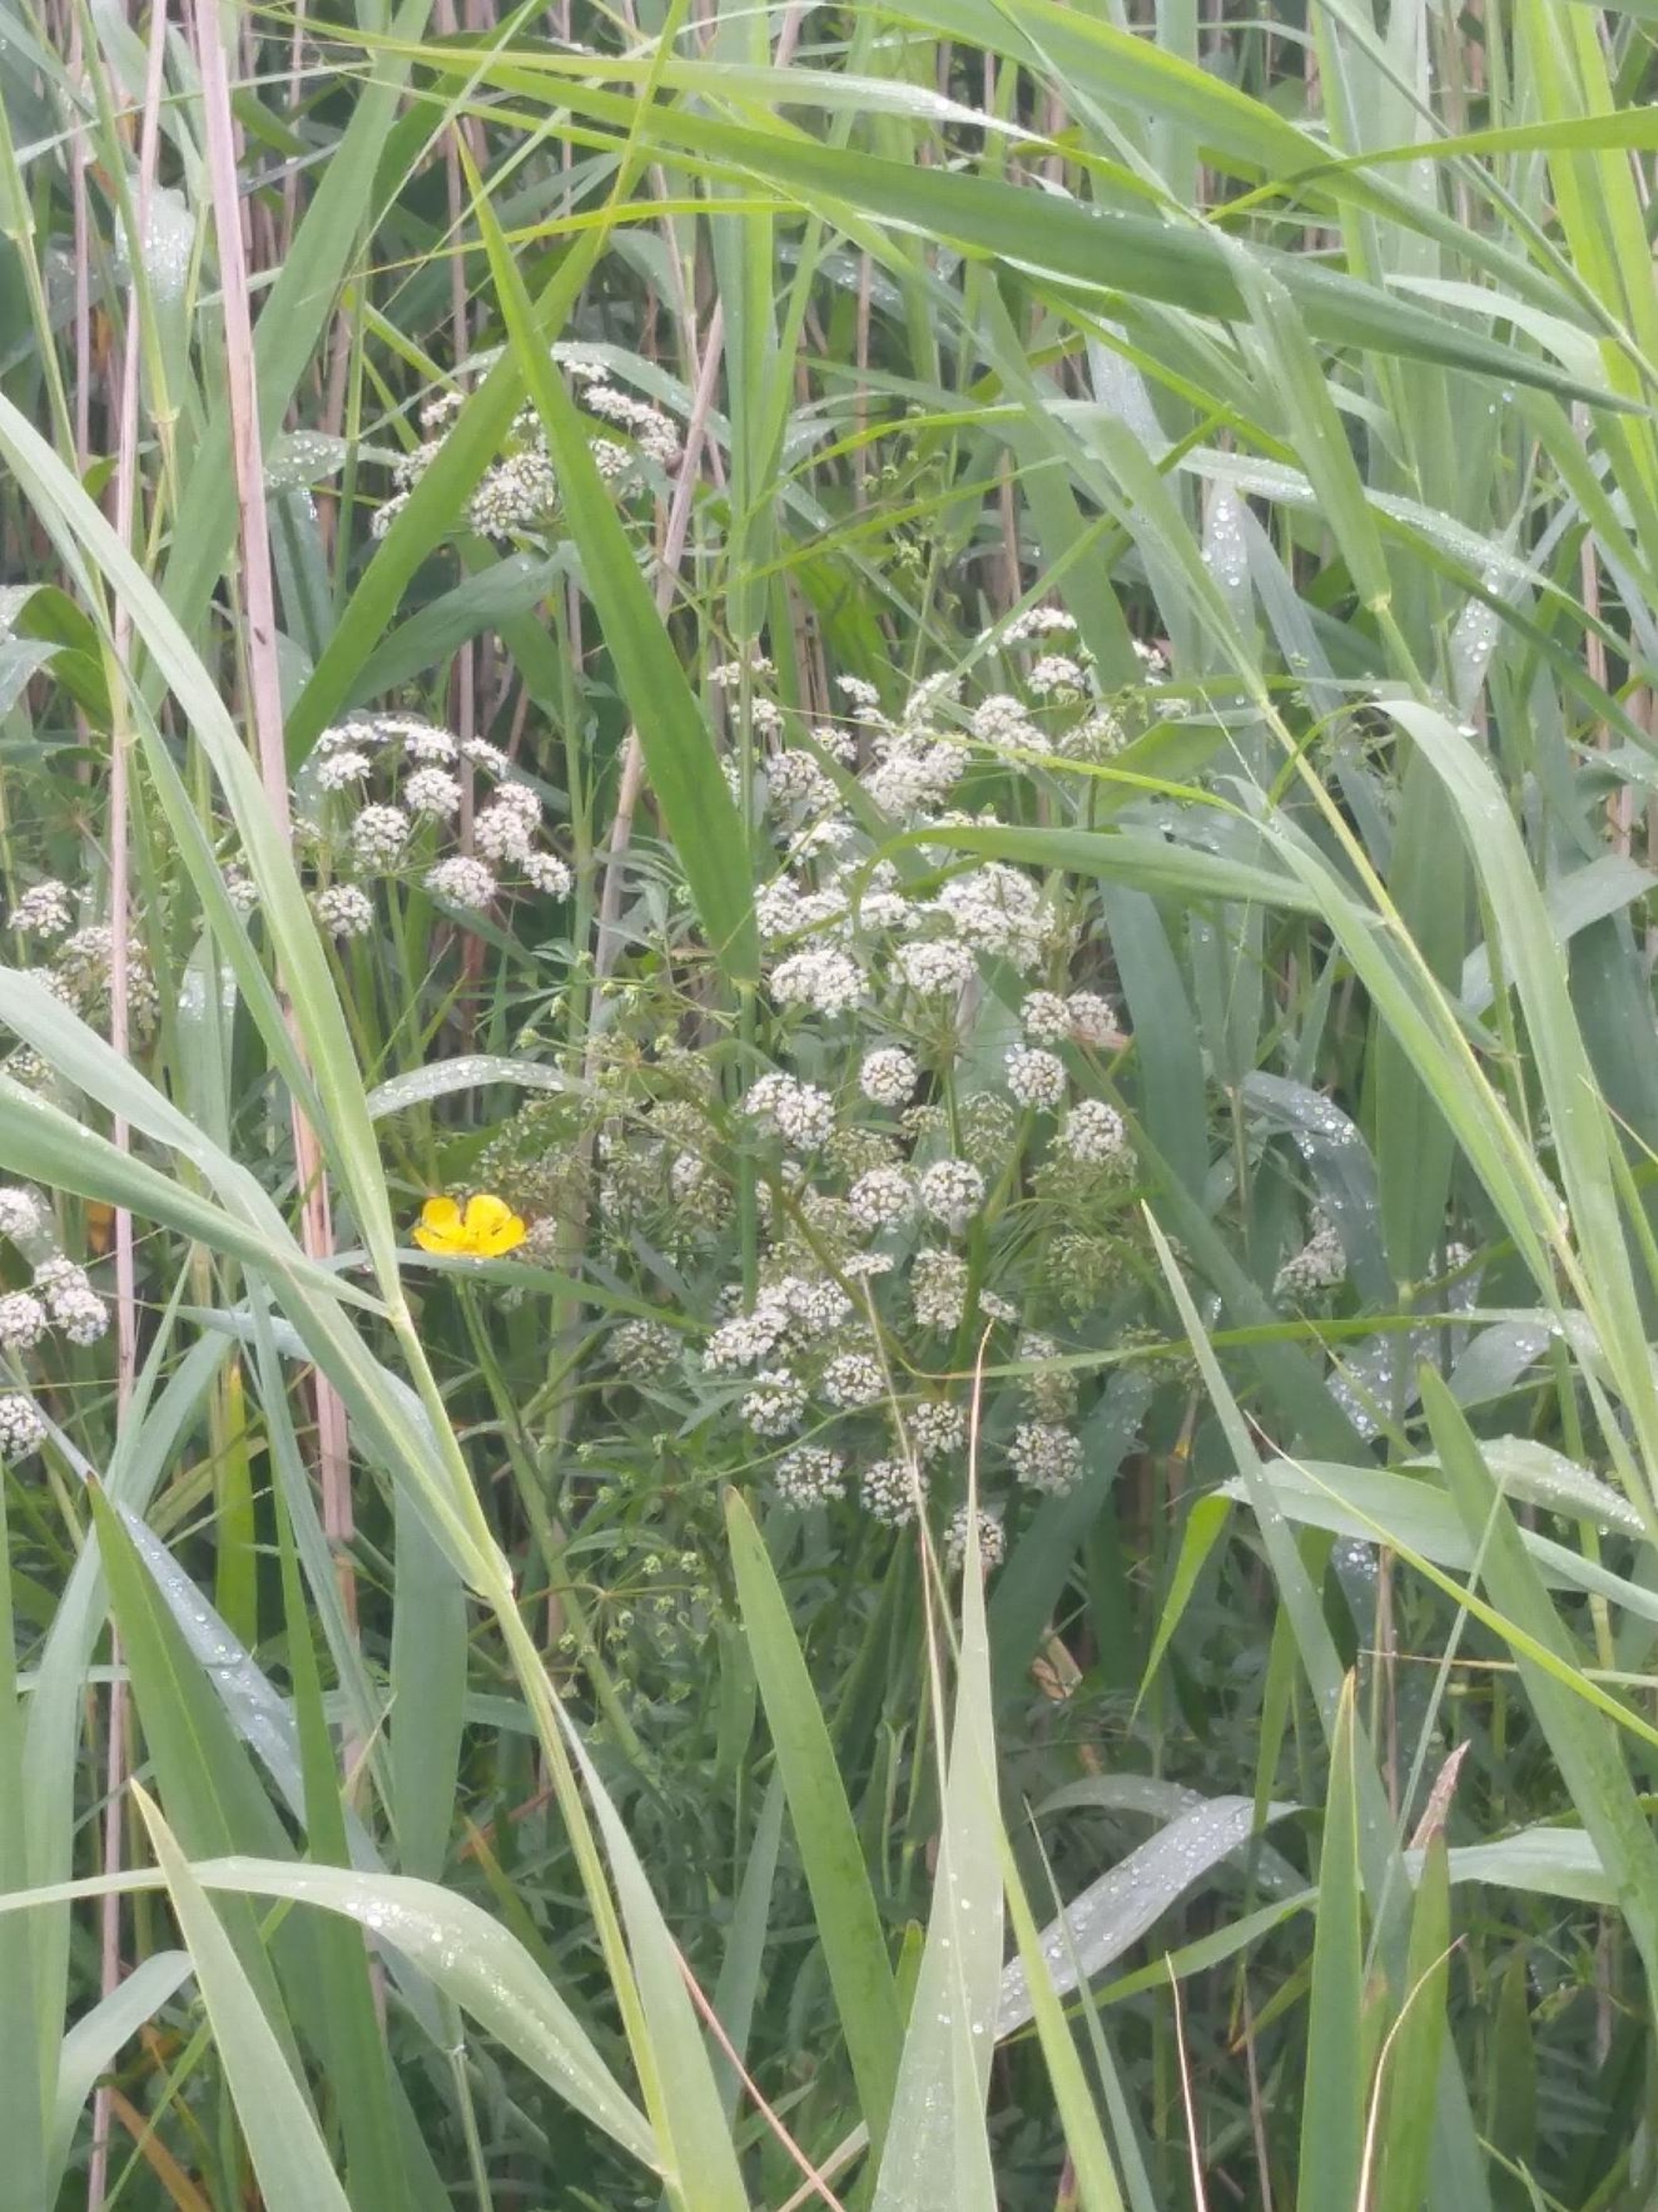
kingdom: Plantae
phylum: Tracheophyta
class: Magnoliopsida
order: Apiales
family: Apiaceae
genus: Cicuta
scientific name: Cicuta virosa
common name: Gifttyde
